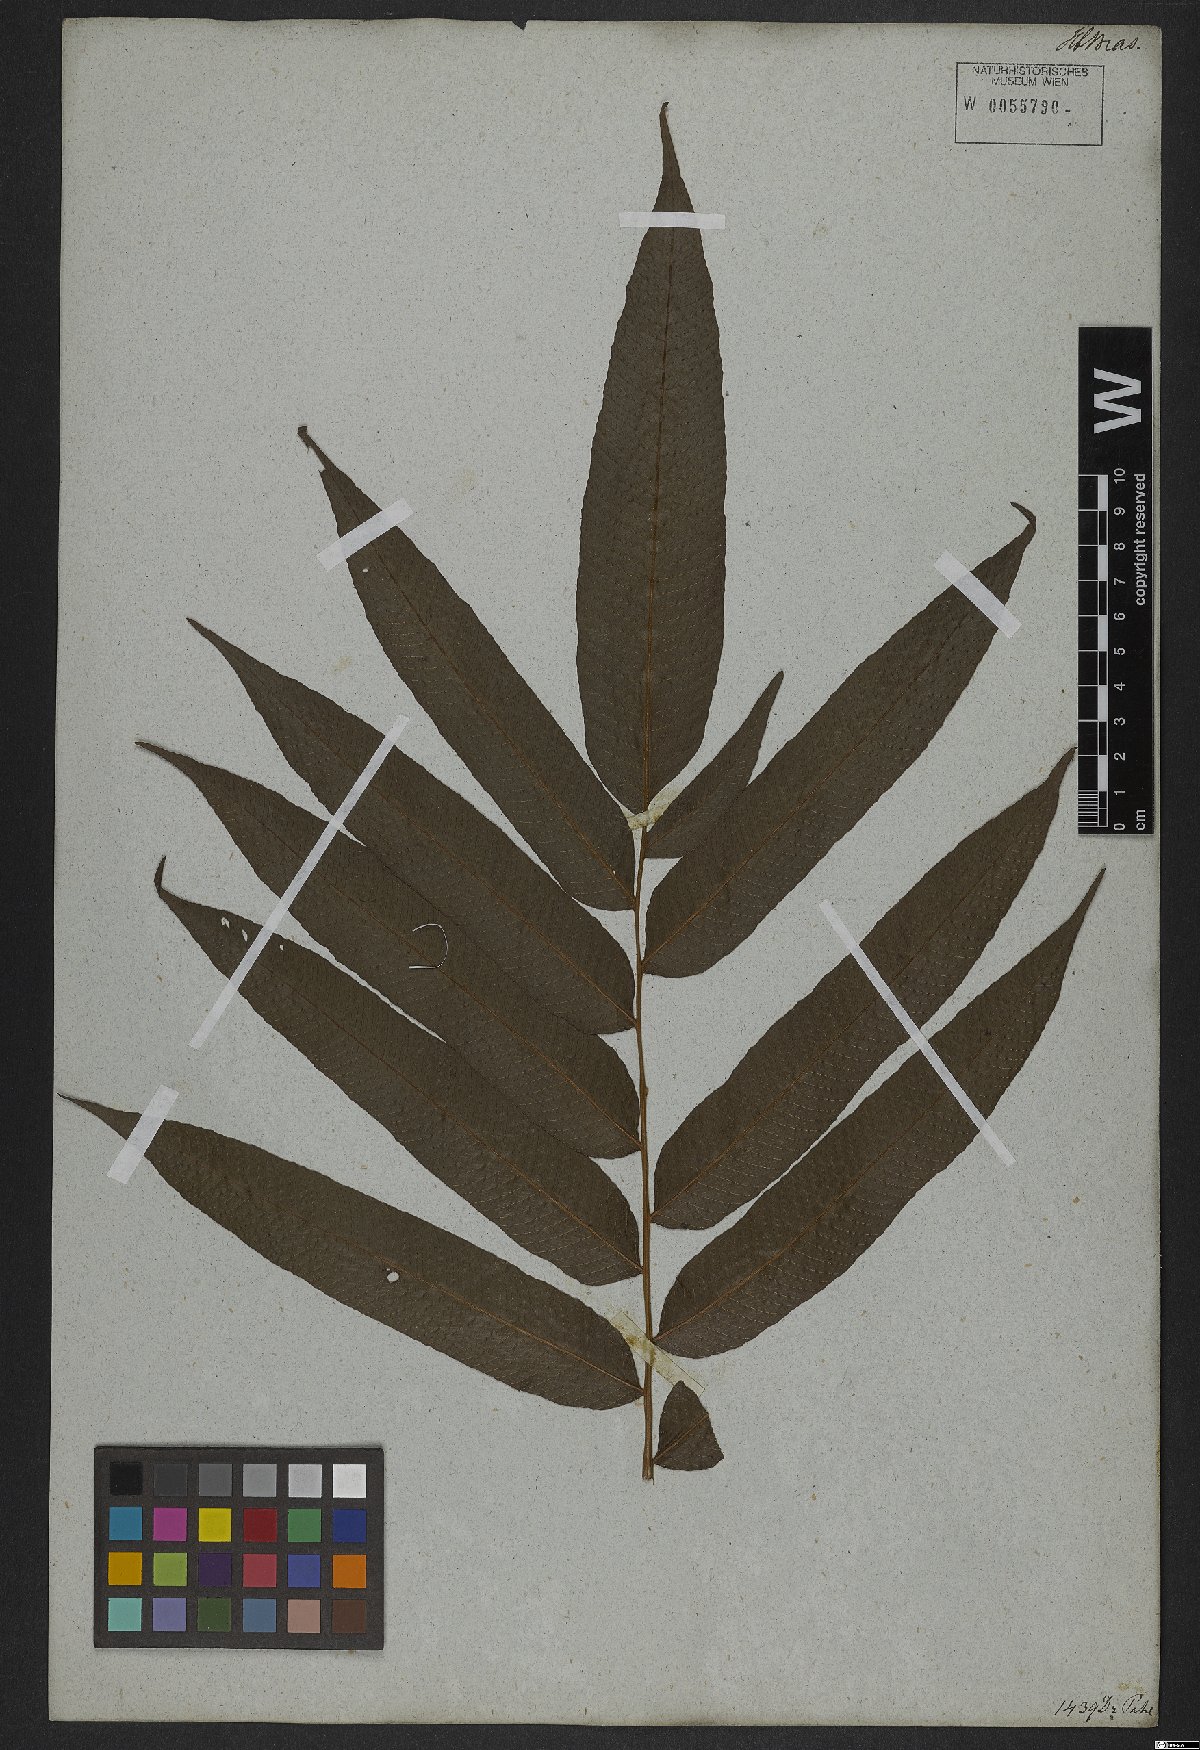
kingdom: Plantae
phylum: Tracheophyta
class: Polypodiopsida
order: Polypodiales
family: Thelypteridaceae
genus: Meniscium
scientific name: Meniscium reticulatum
